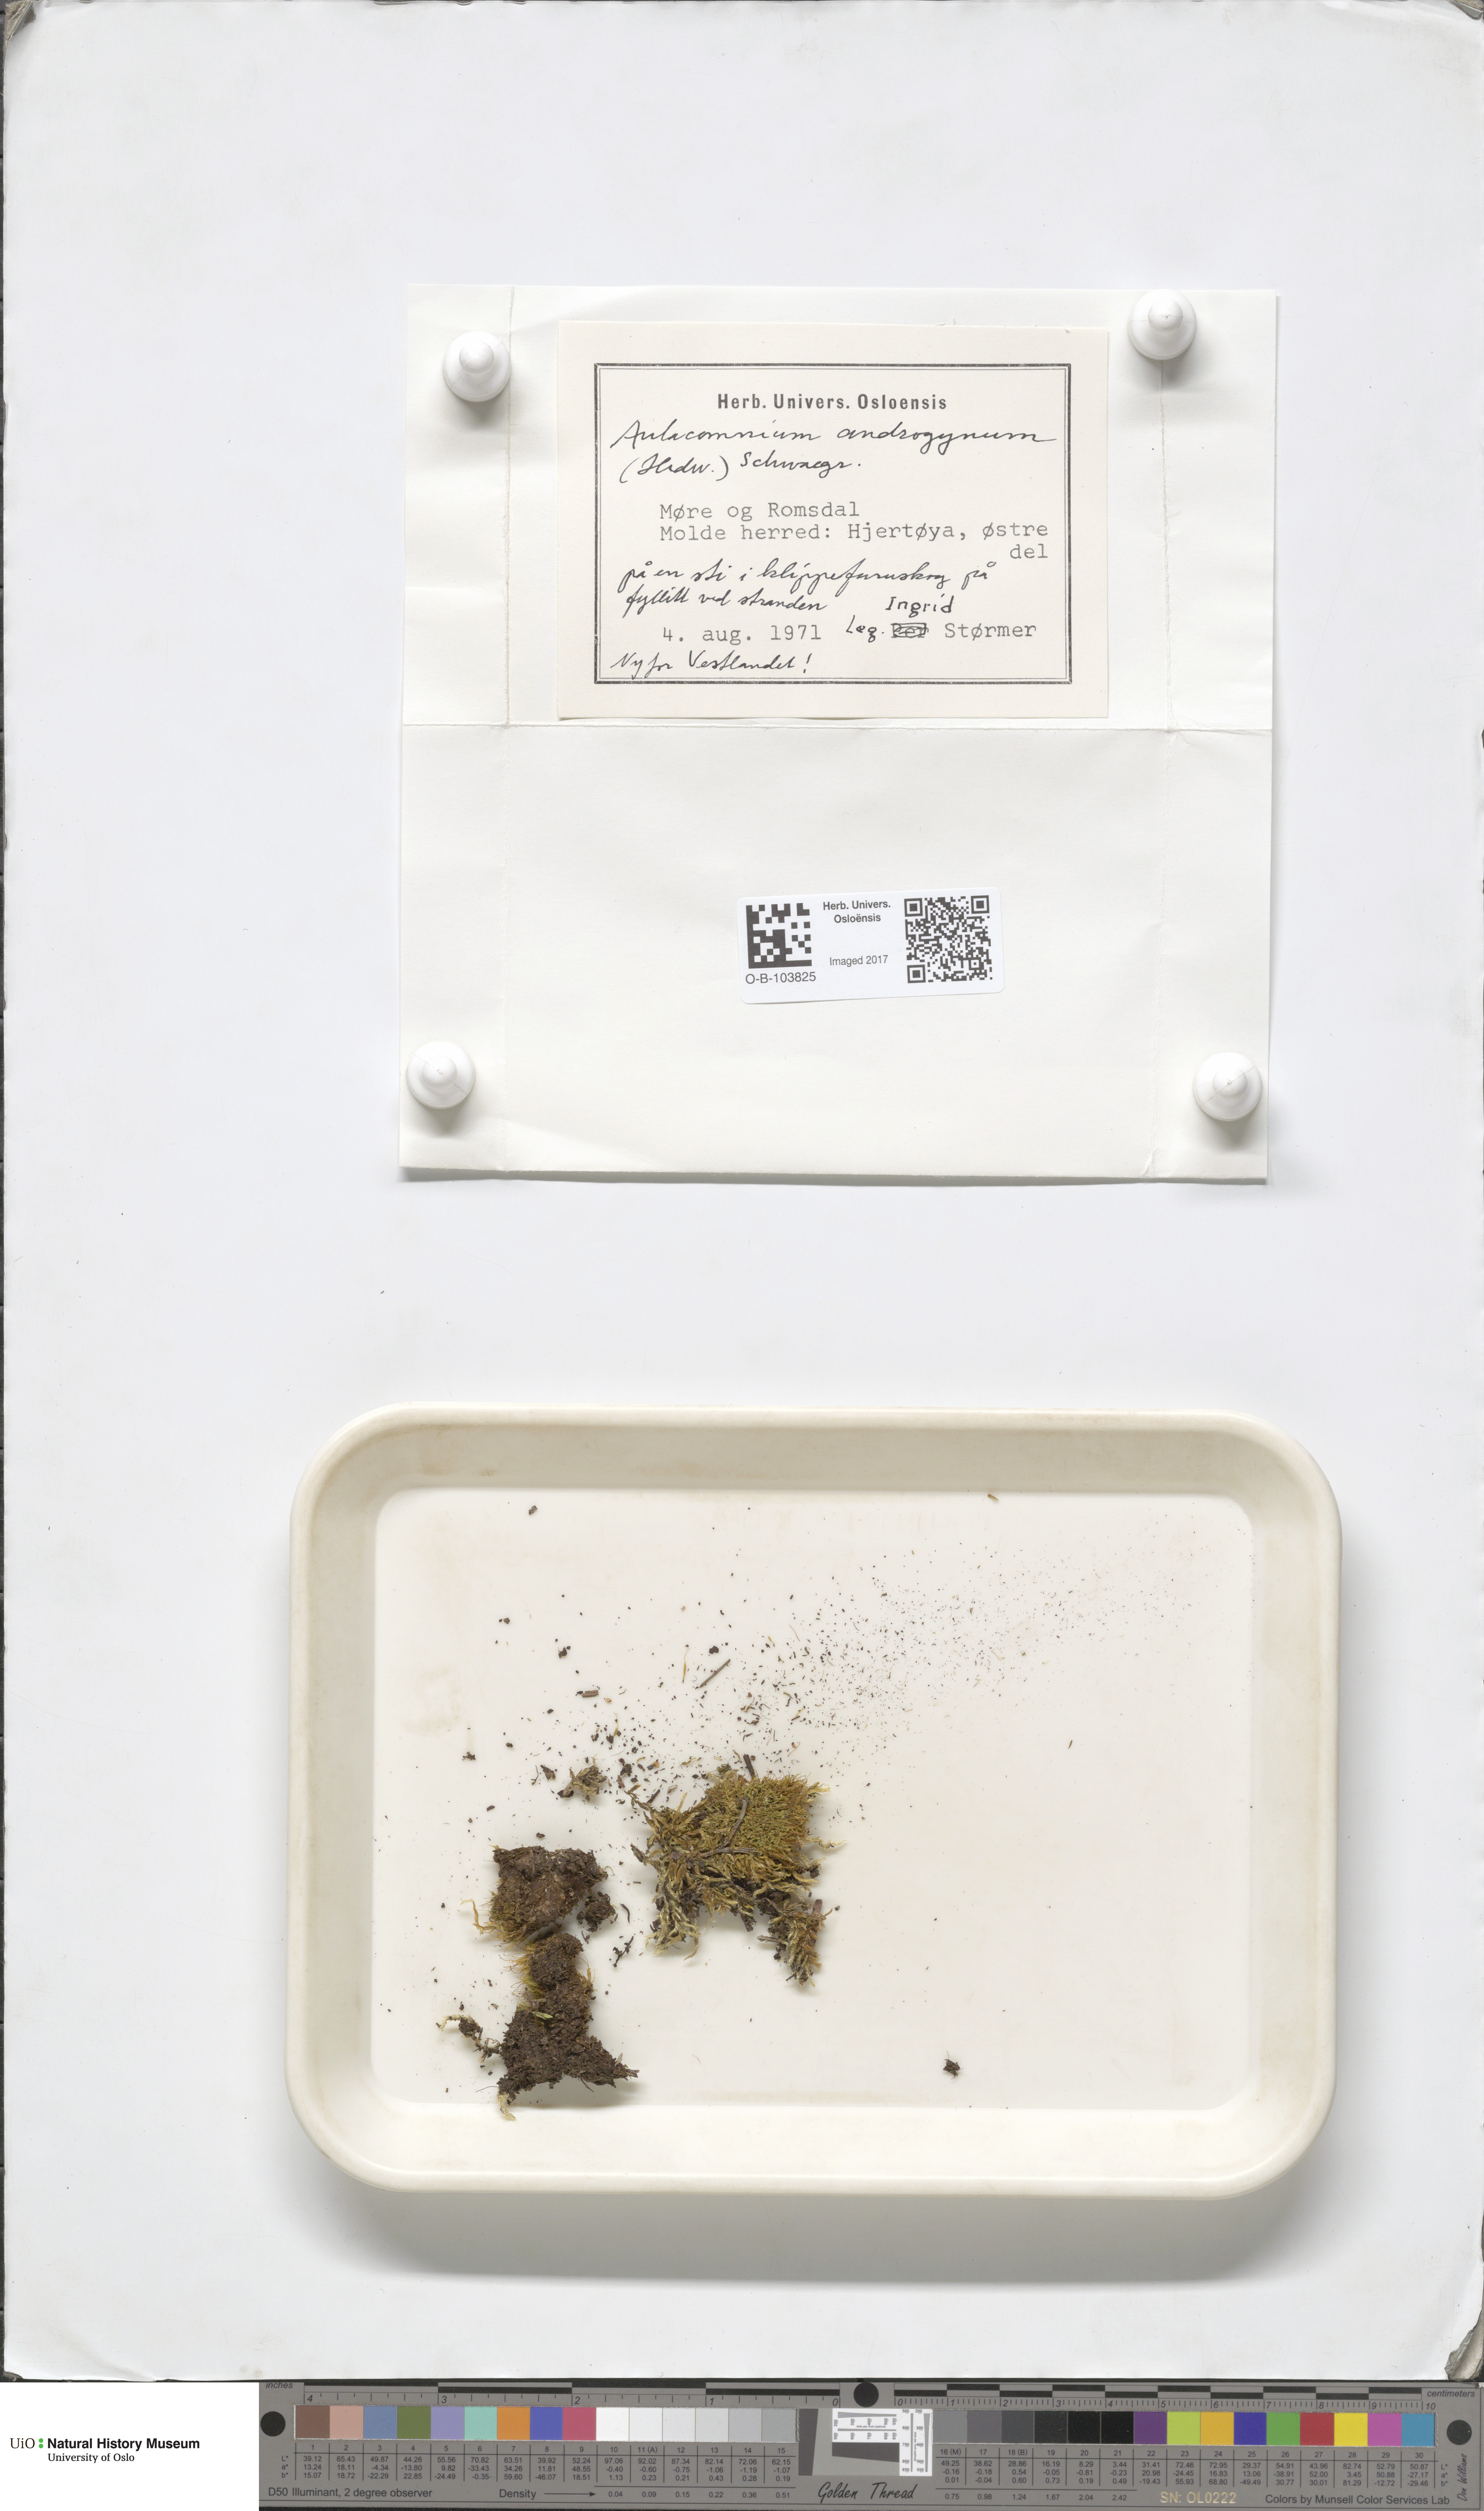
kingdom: Plantae
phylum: Bryophyta
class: Bryopsida
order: Aulacomniales
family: Aulacomniaceae
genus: Aulacomnium
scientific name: Aulacomnium androgynum
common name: Little groove moss
